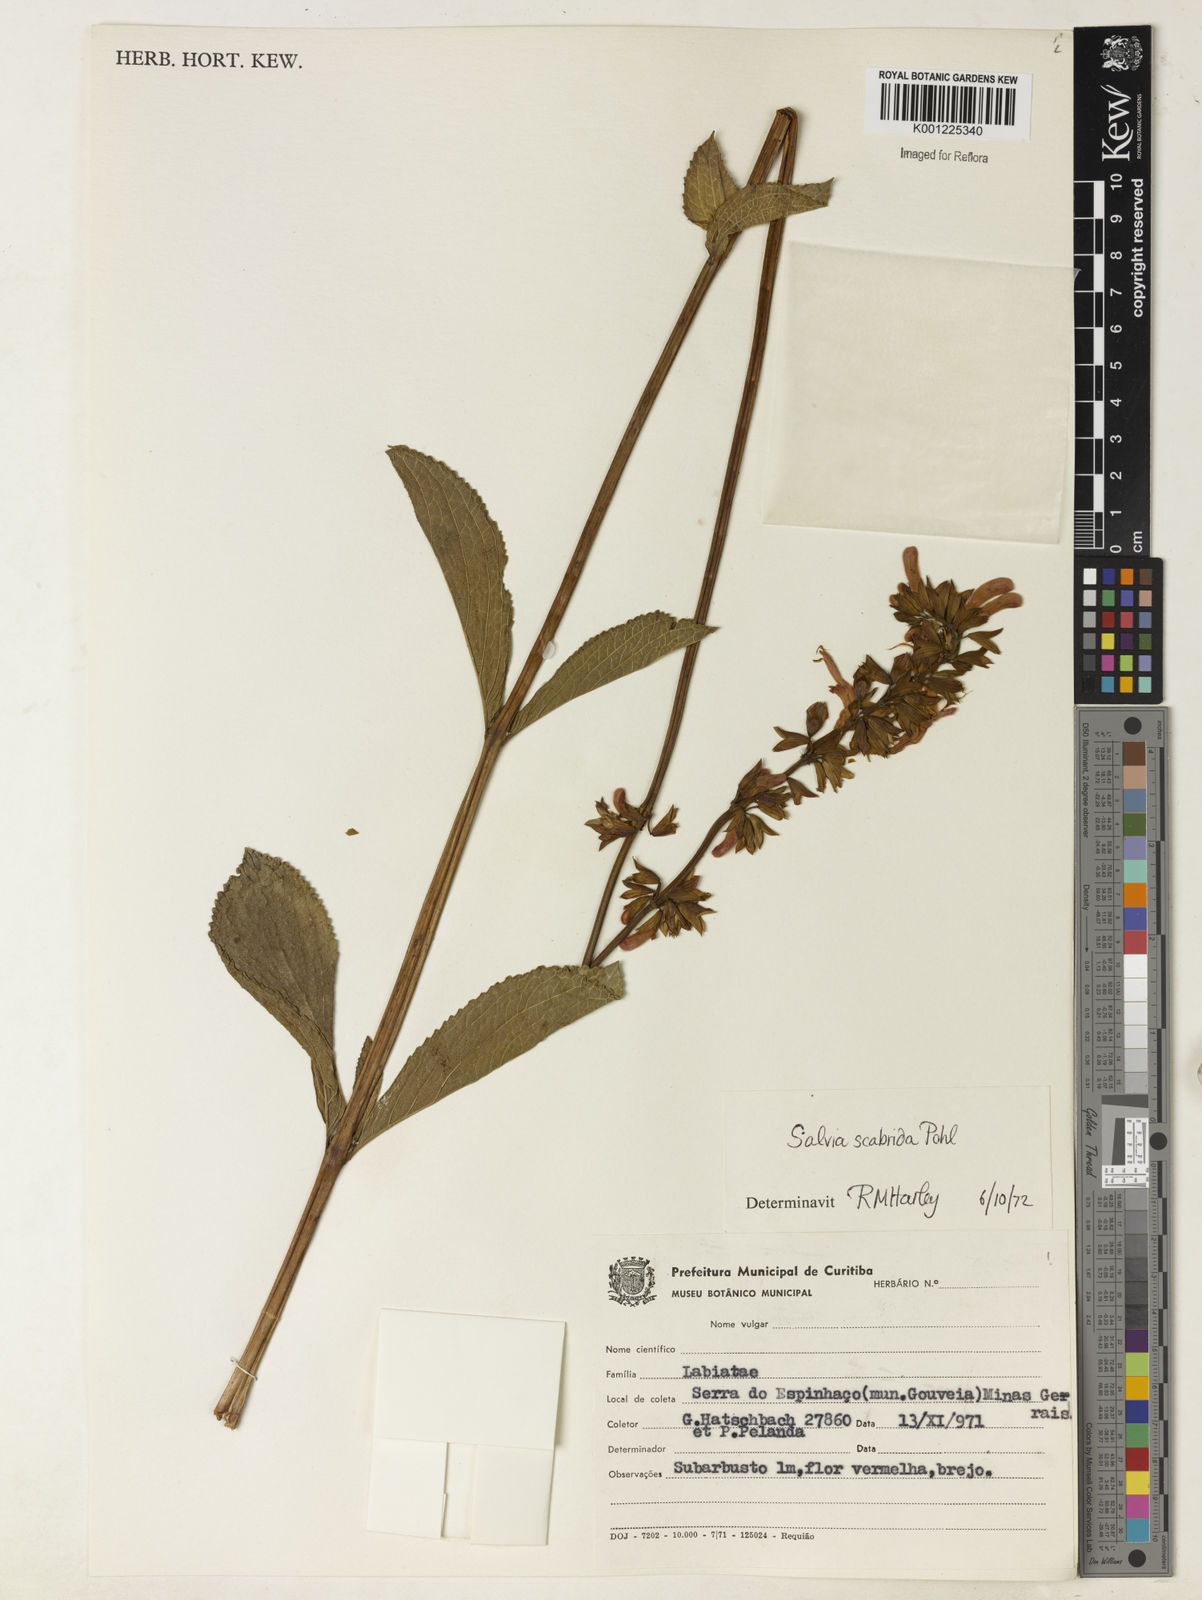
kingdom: Plantae
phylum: Tracheophyta
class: Magnoliopsida
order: Lamiales
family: Lamiaceae
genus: Salvia
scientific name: Salvia scabrida
